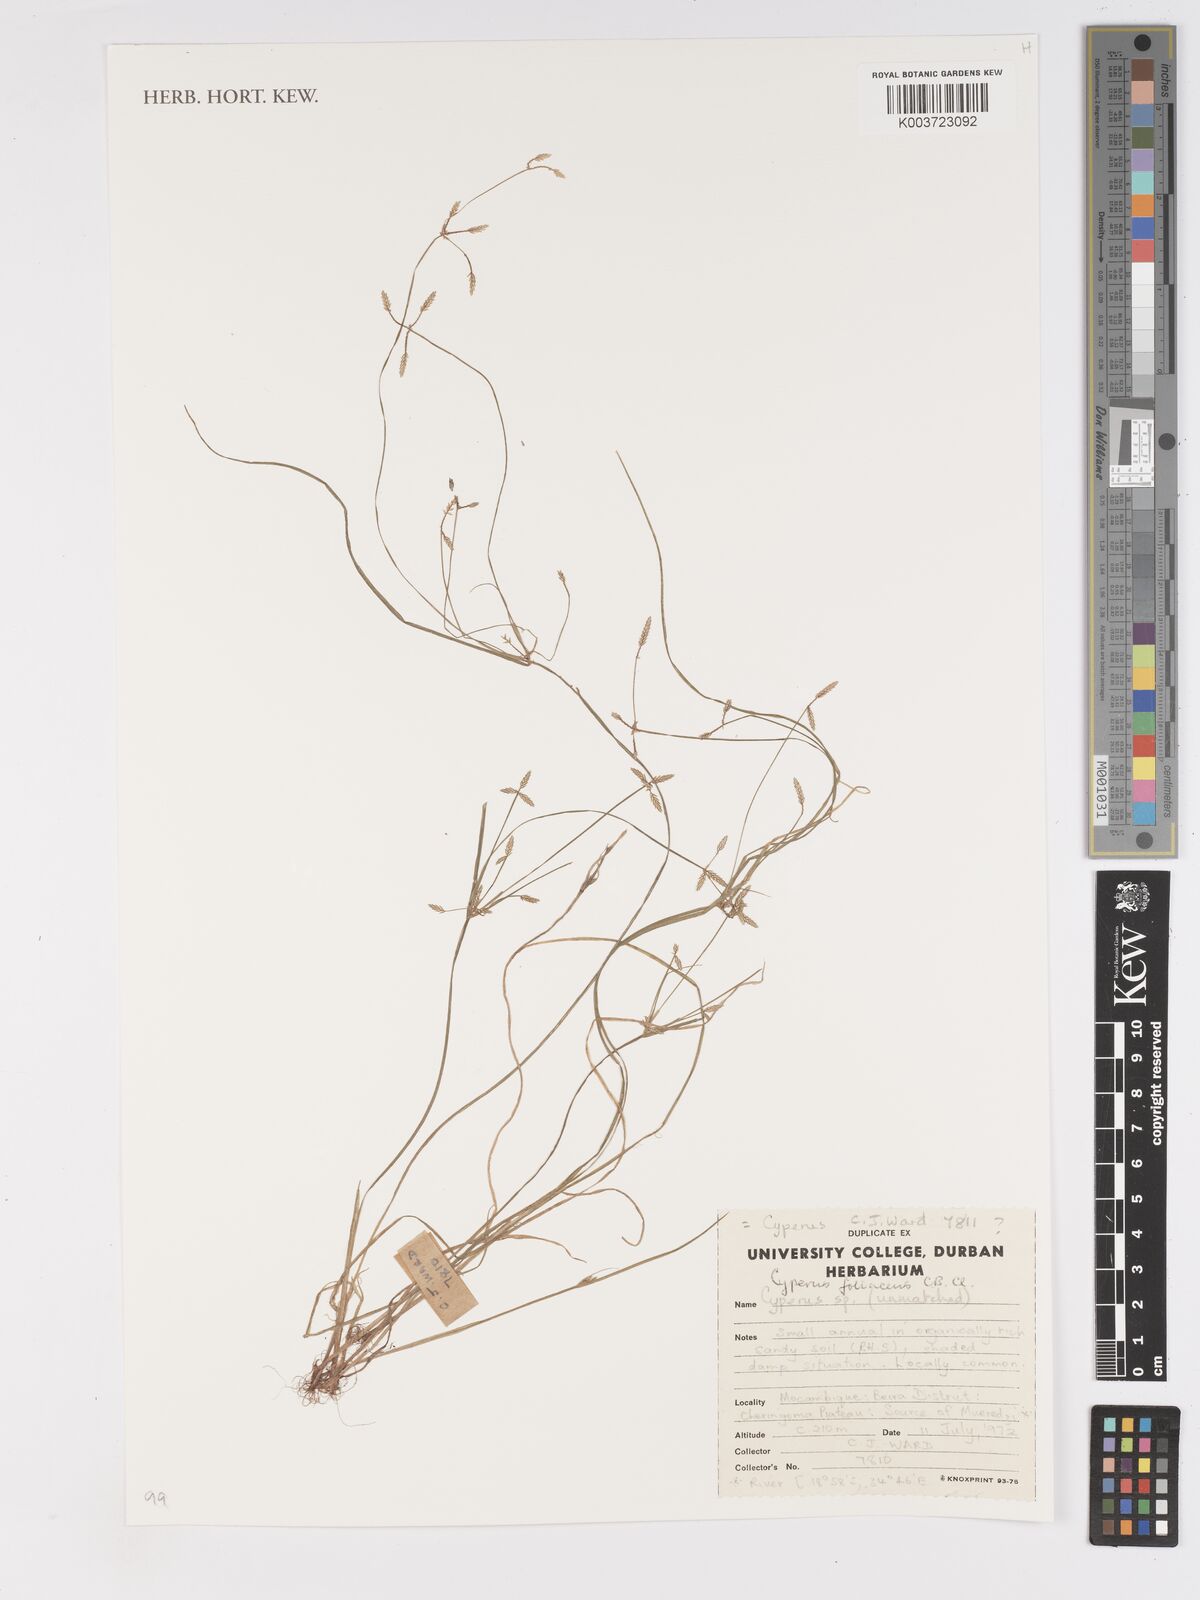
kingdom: Plantae
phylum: Tracheophyta
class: Liliopsida
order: Poales
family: Cyperaceae
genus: Cyperus
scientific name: Cyperus foliaceus
